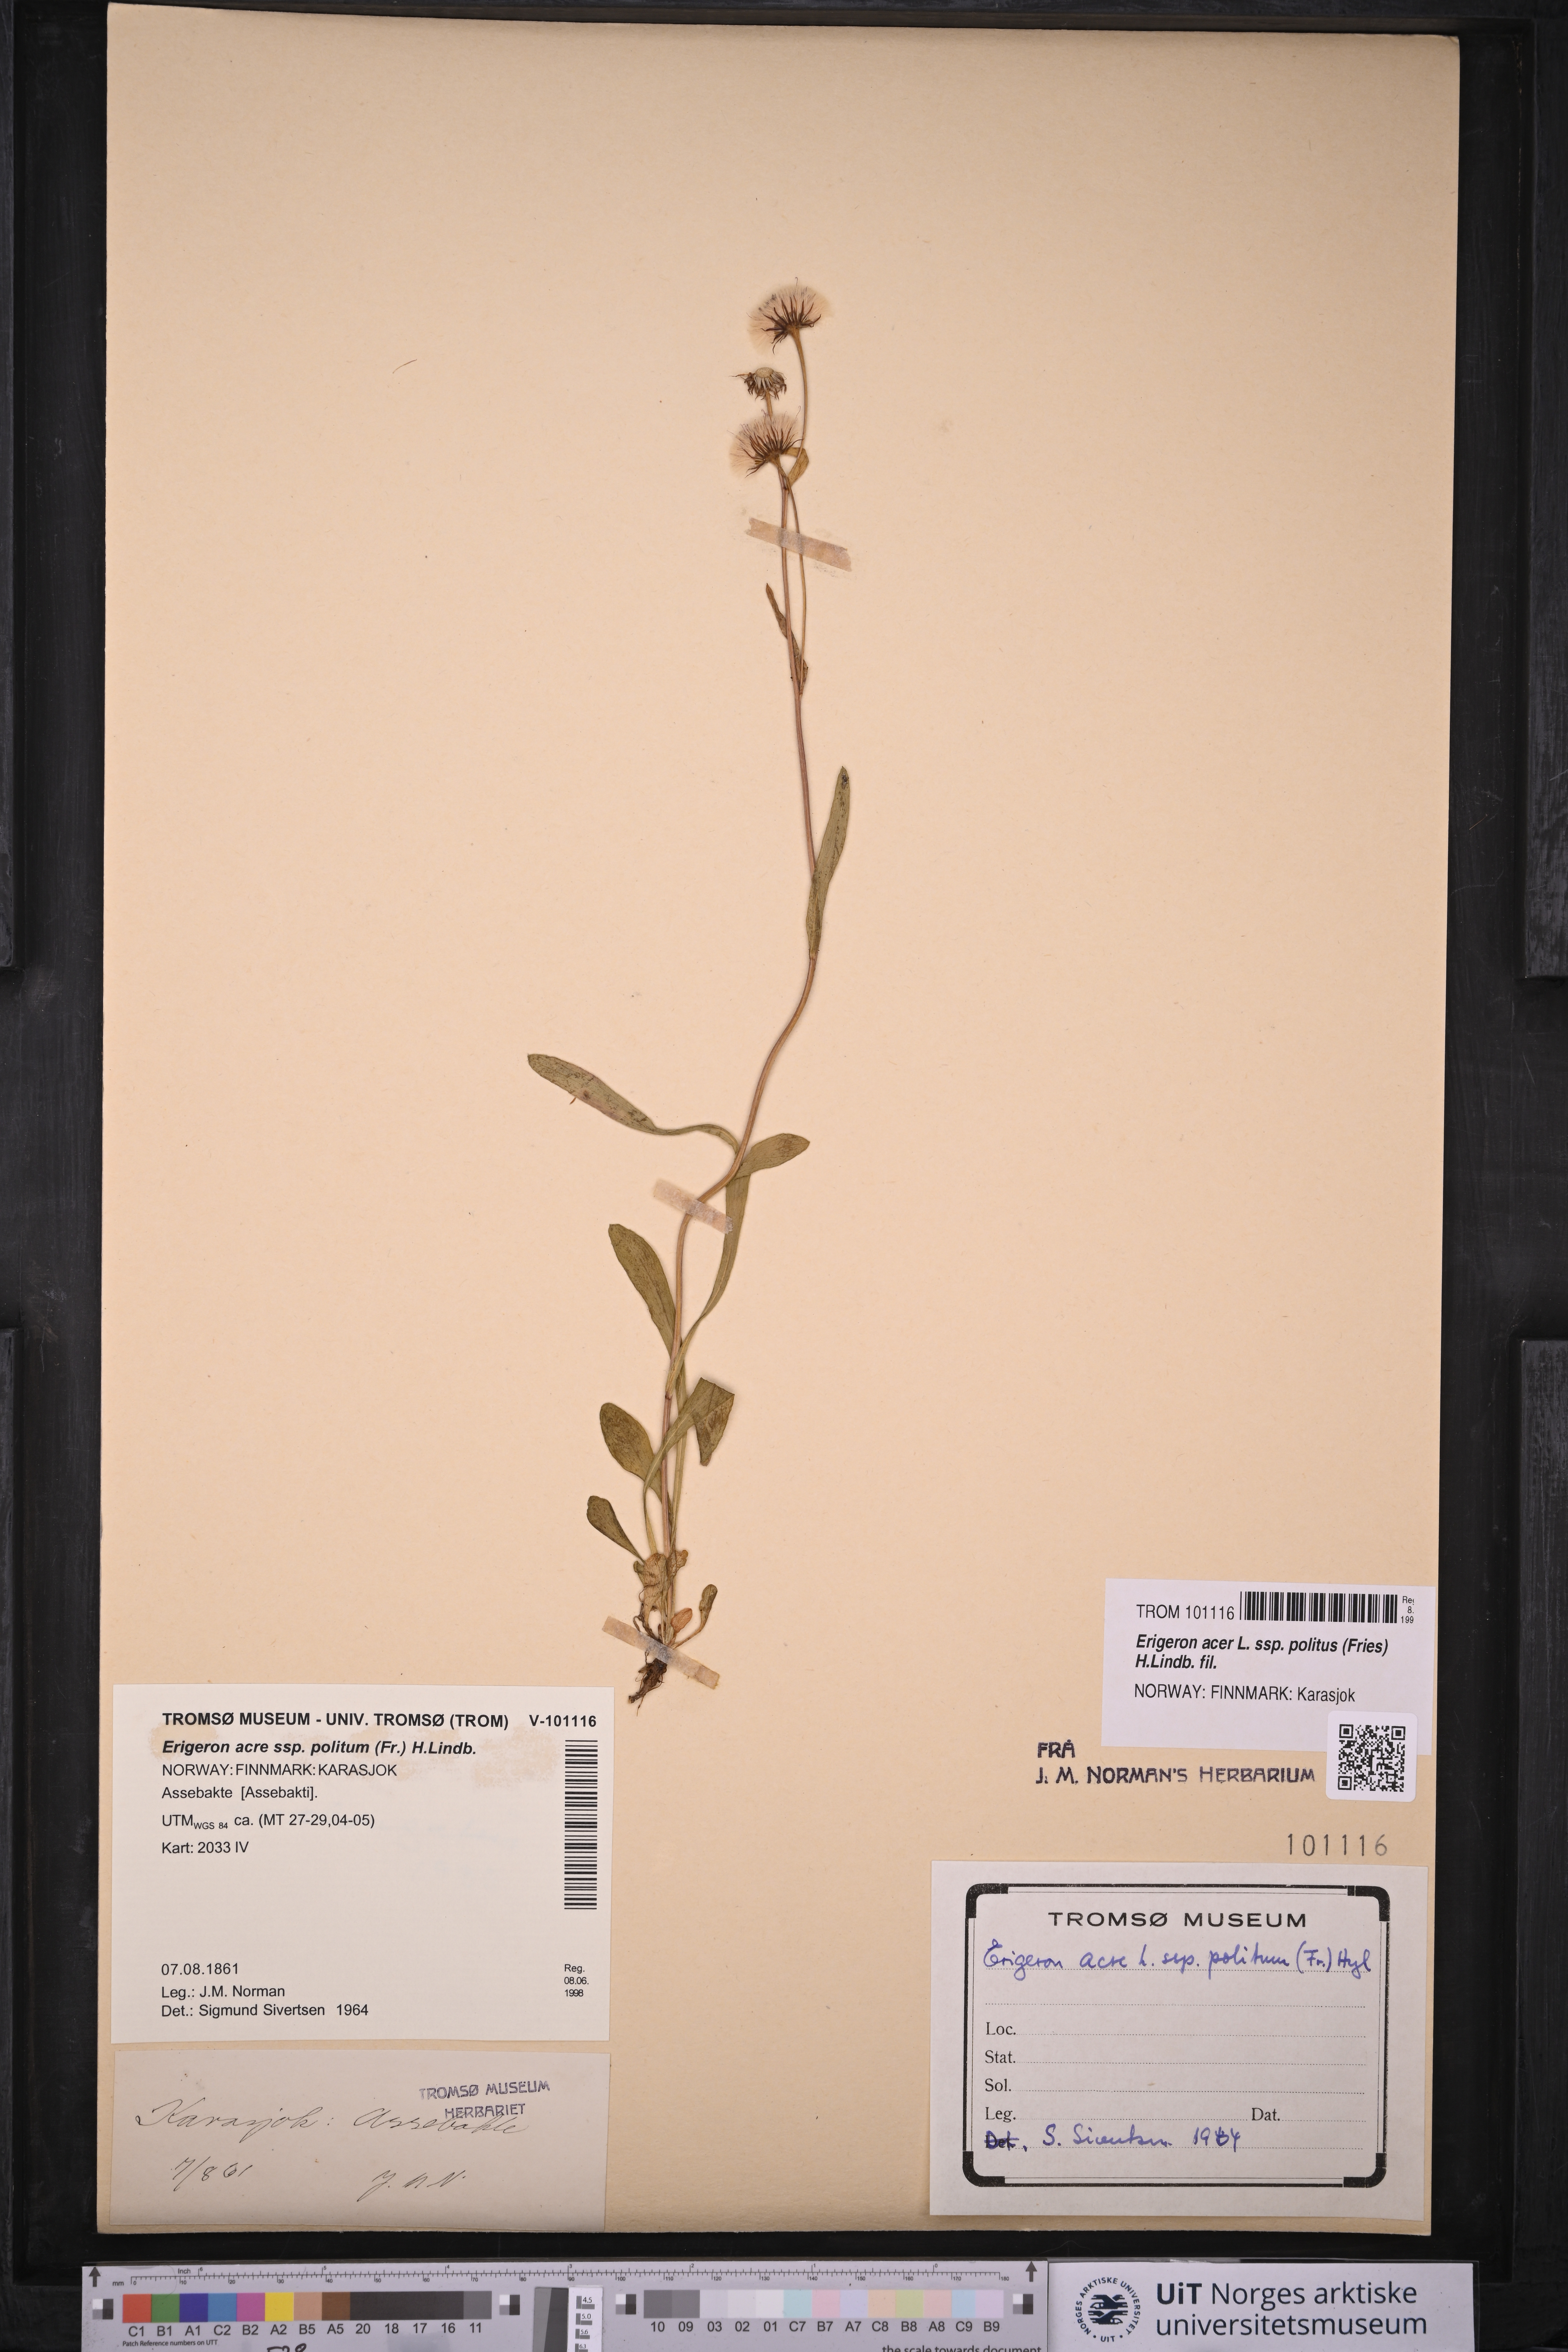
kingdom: Plantae
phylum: Tracheophyta
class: Magnoliopsida
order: Asterales
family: Asteraceae
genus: Erigeron
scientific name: Erigeron politus
